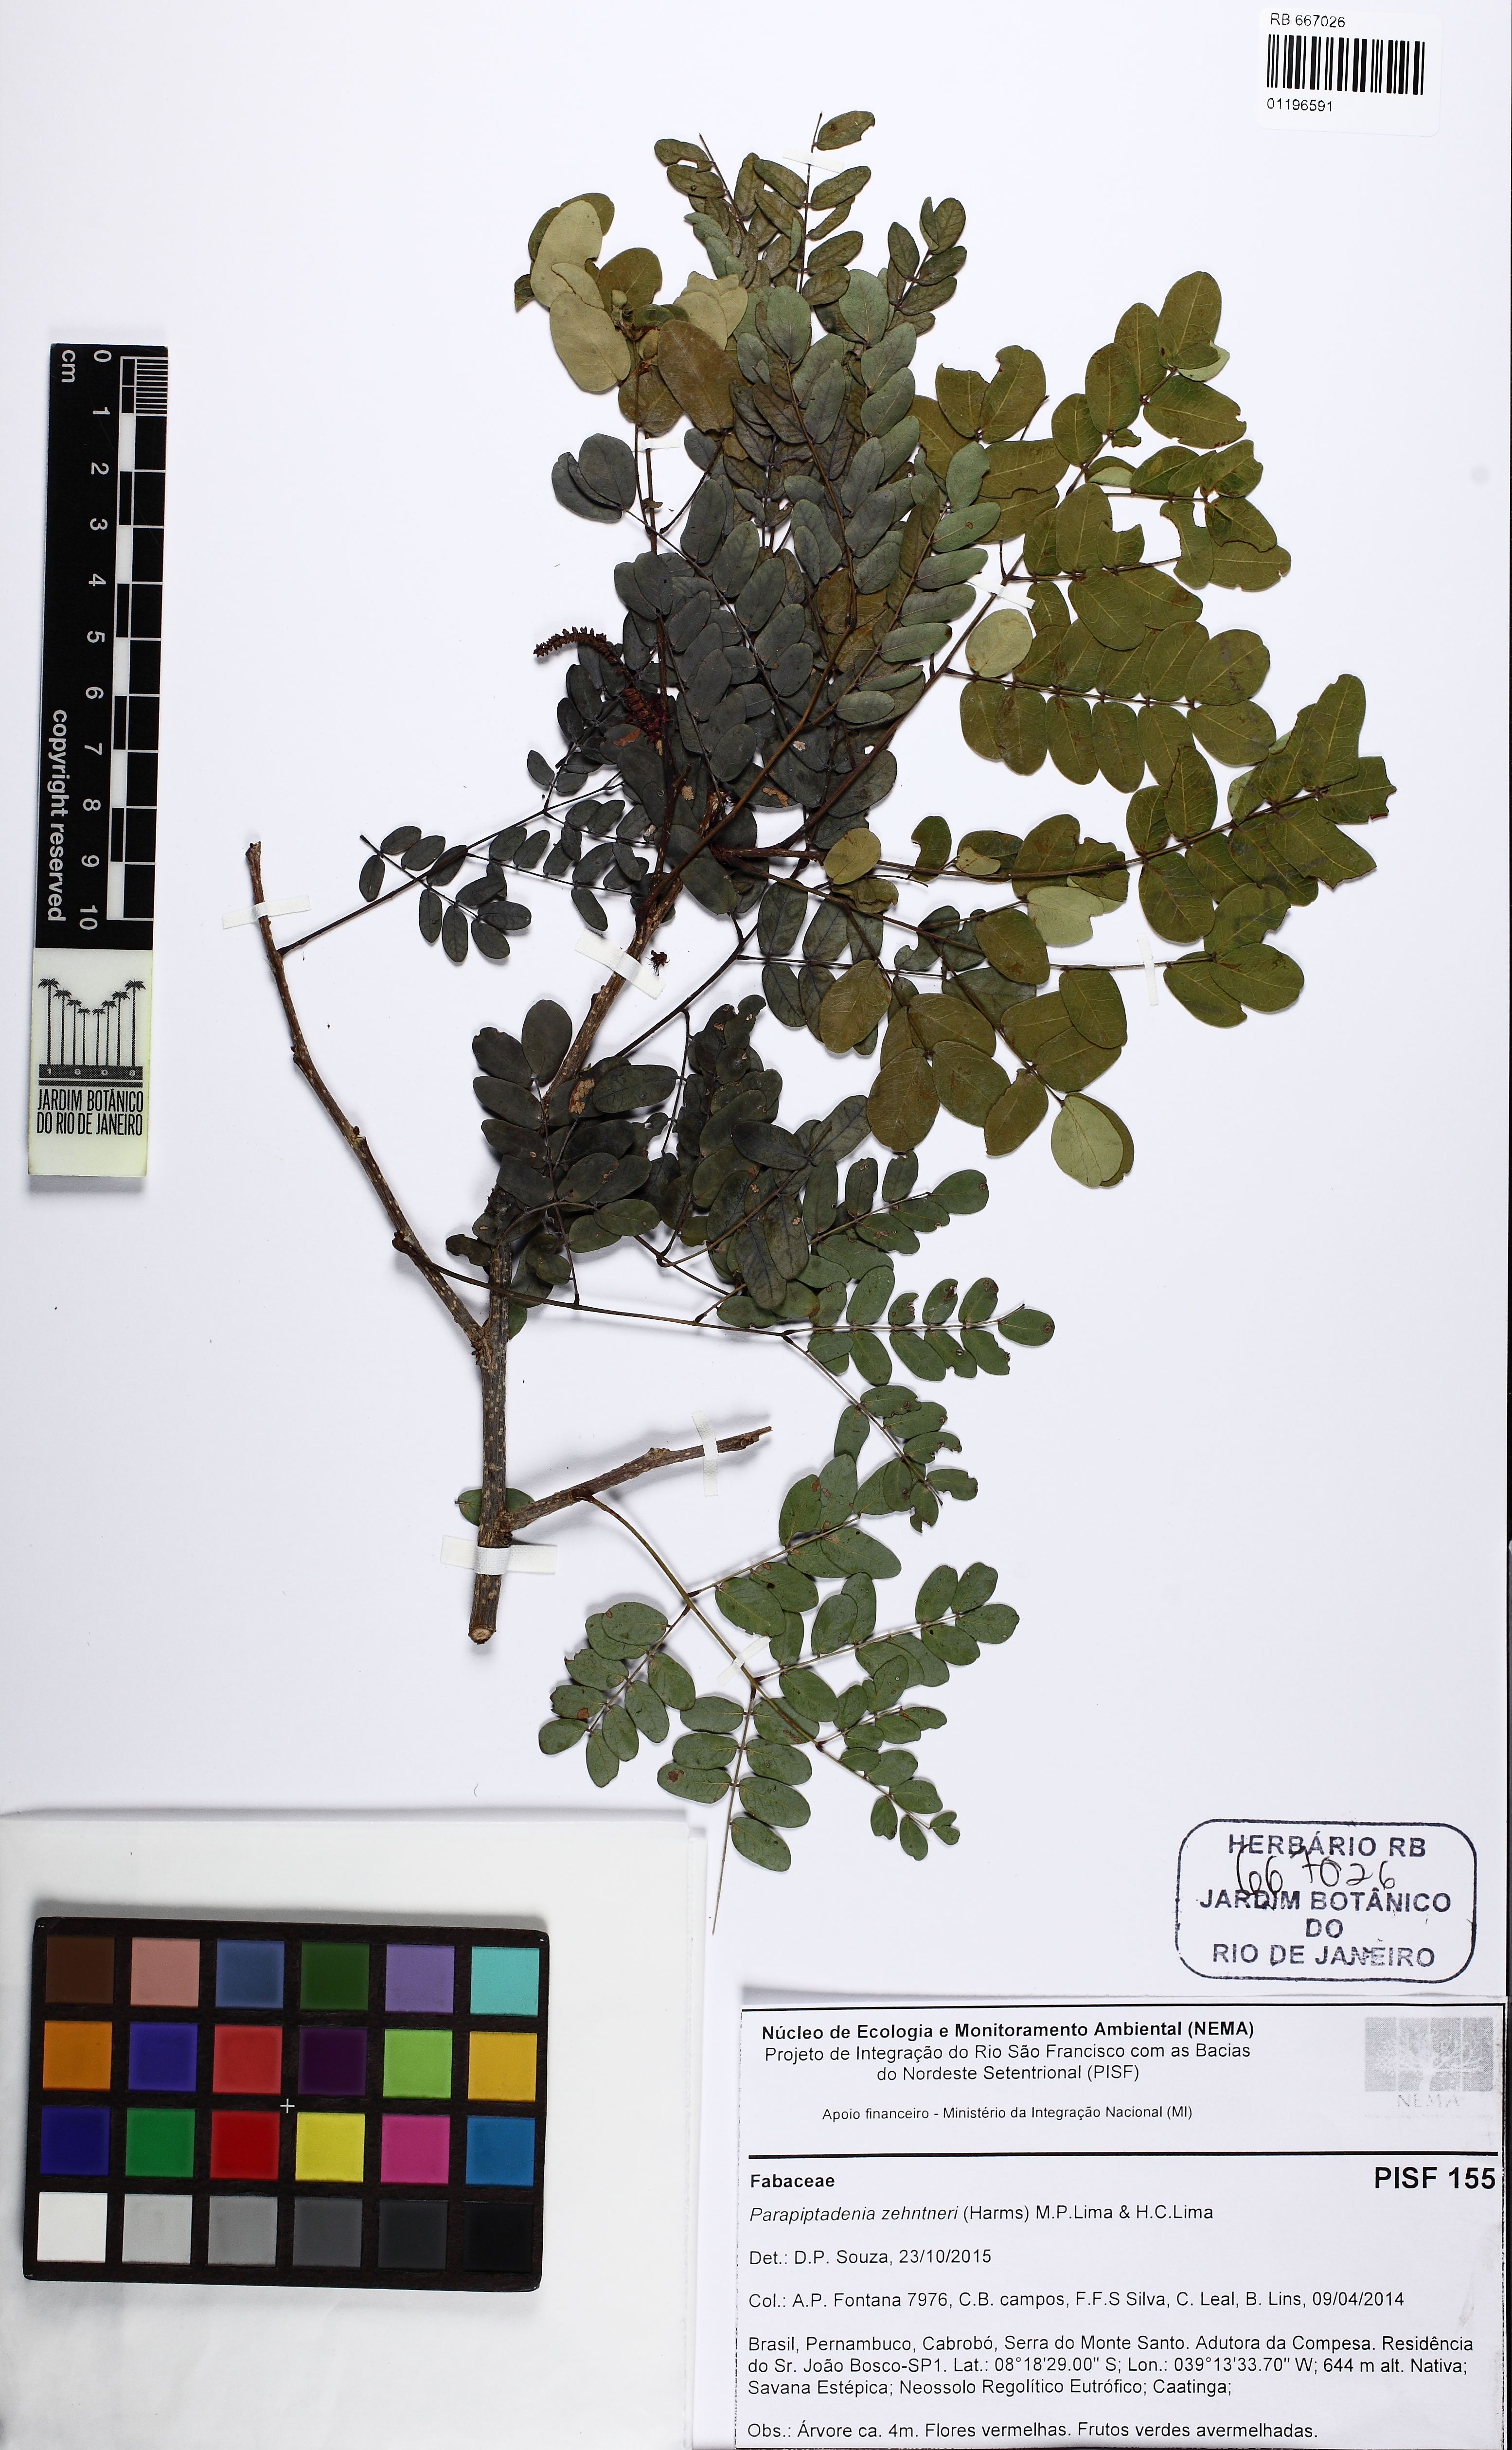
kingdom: Plantae
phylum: Tracheophyta
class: Magnoliopsida
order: Fabales
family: Fabaceae
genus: Parapiptadenia
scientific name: Parapiptadenia zehntneri
